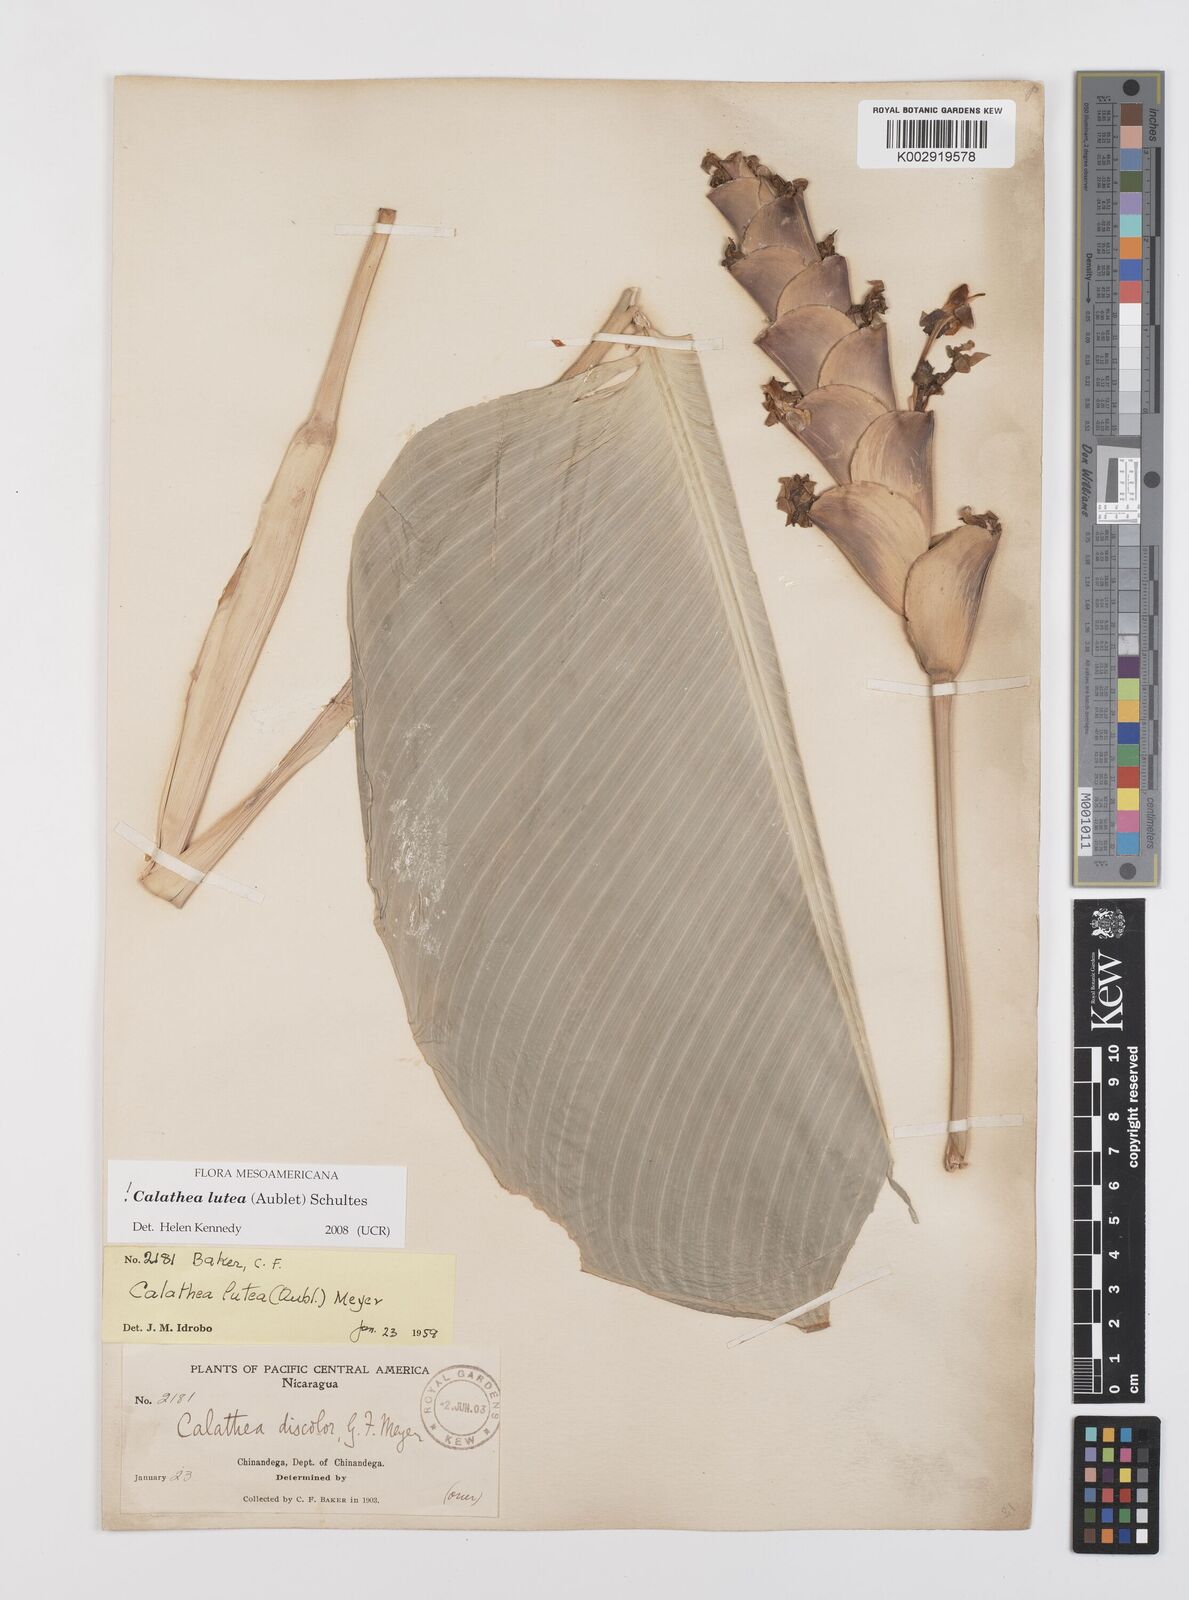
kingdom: Plantae
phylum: Tracheophyta
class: Liliopsida
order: Zingiberales
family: Marantaceae
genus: Calathea
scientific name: Calathea lutea
